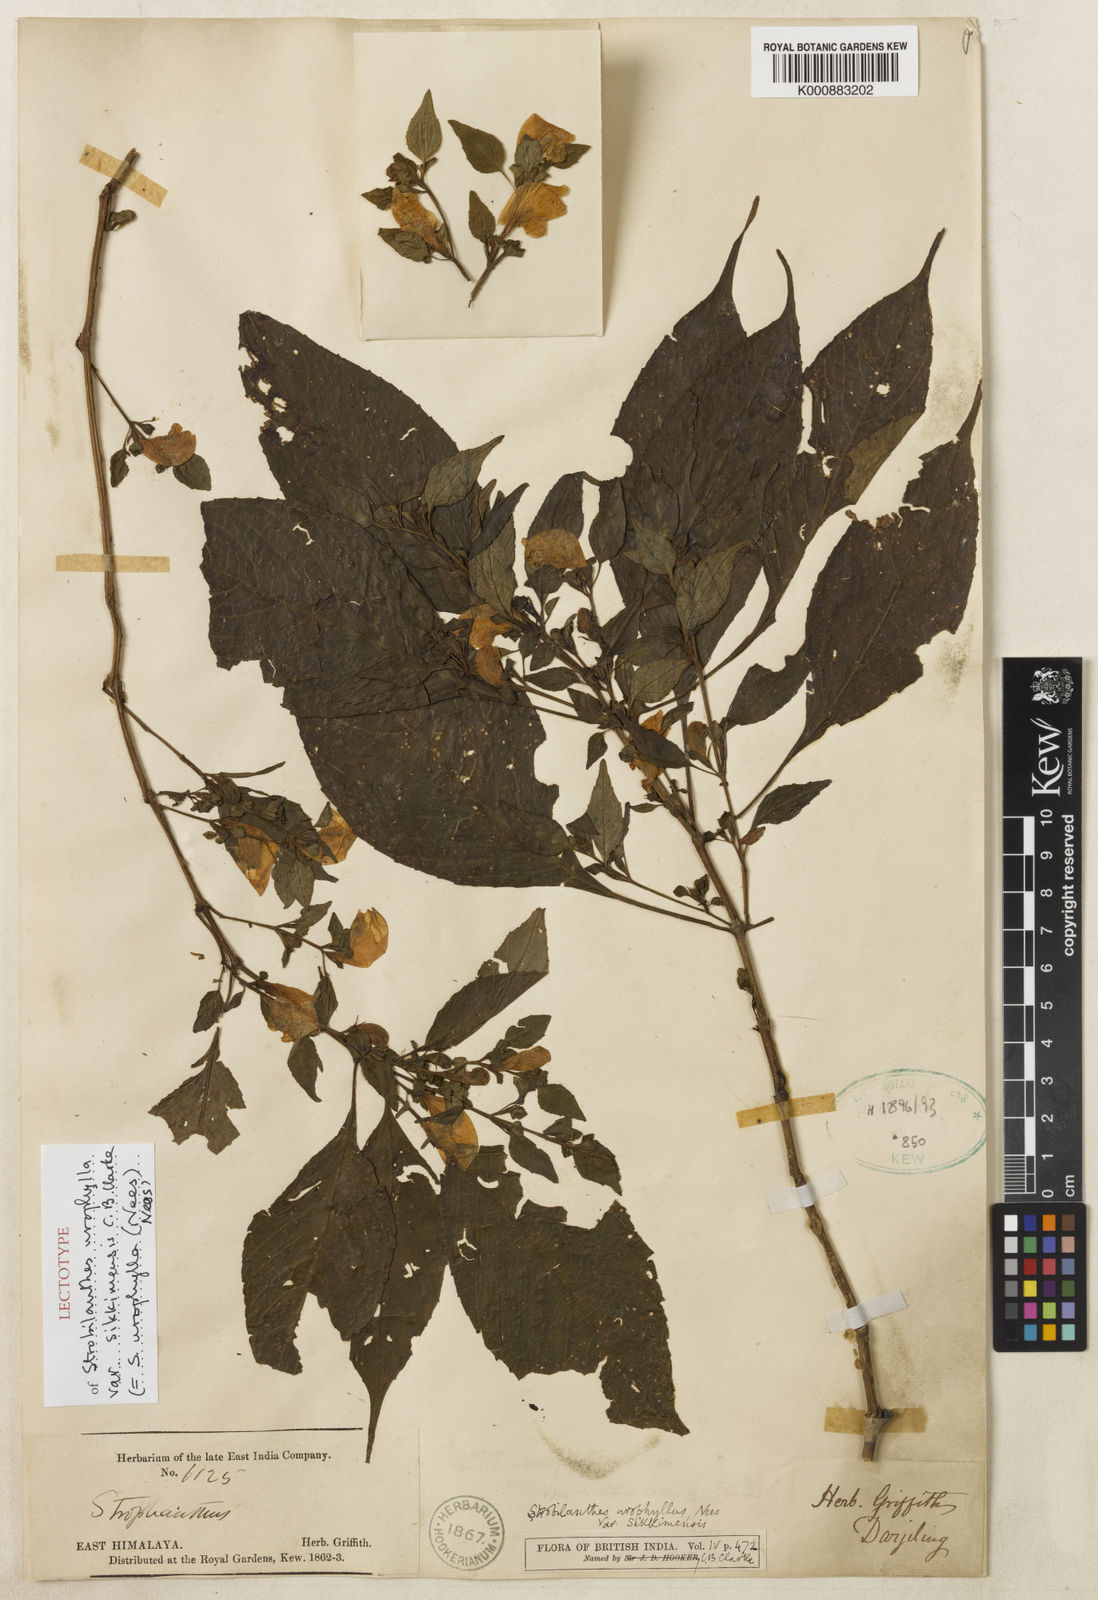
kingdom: Plantae
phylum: Tracheophyta
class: Magnoliopsida
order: Lamiales
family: Acanthaceae
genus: Strobilanthes
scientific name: Strobilanthes urophylla
